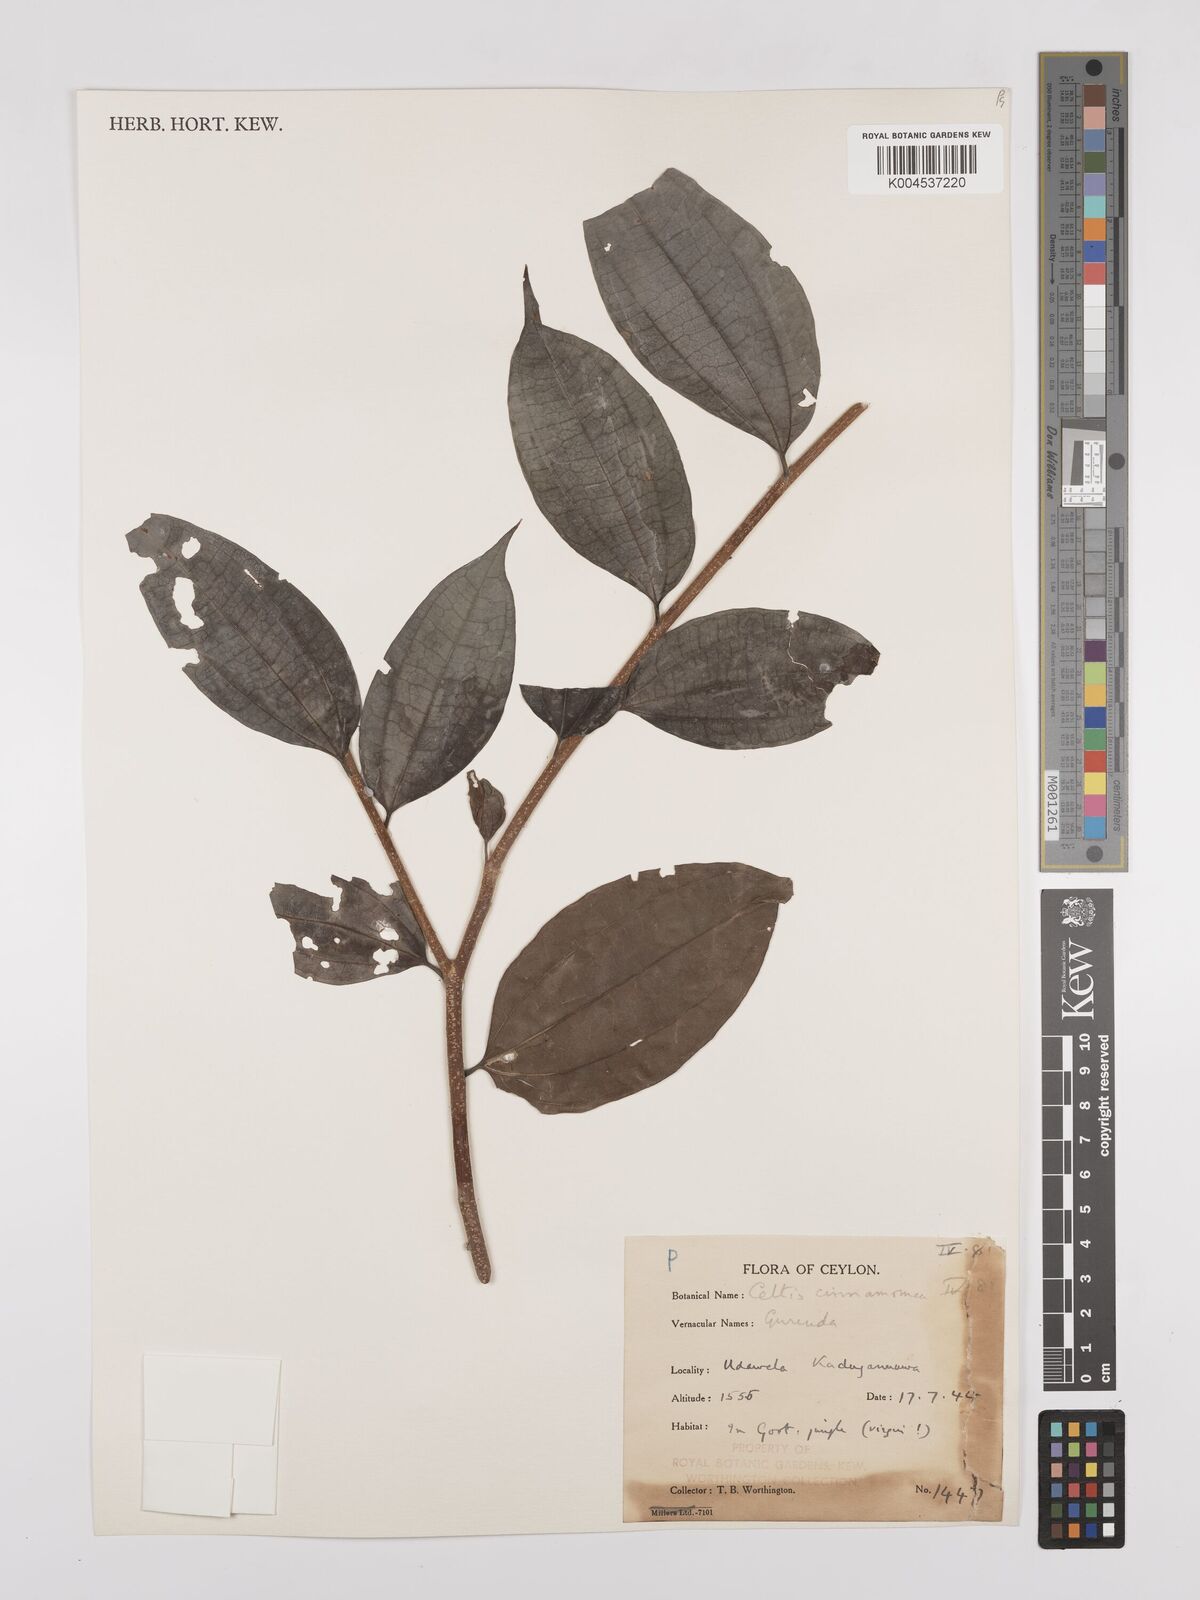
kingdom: Plantae
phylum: Tracheophyta
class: Magnoliopsida
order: Rosales
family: Cannabaceae
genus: Celtis
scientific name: Celtis timorensis
